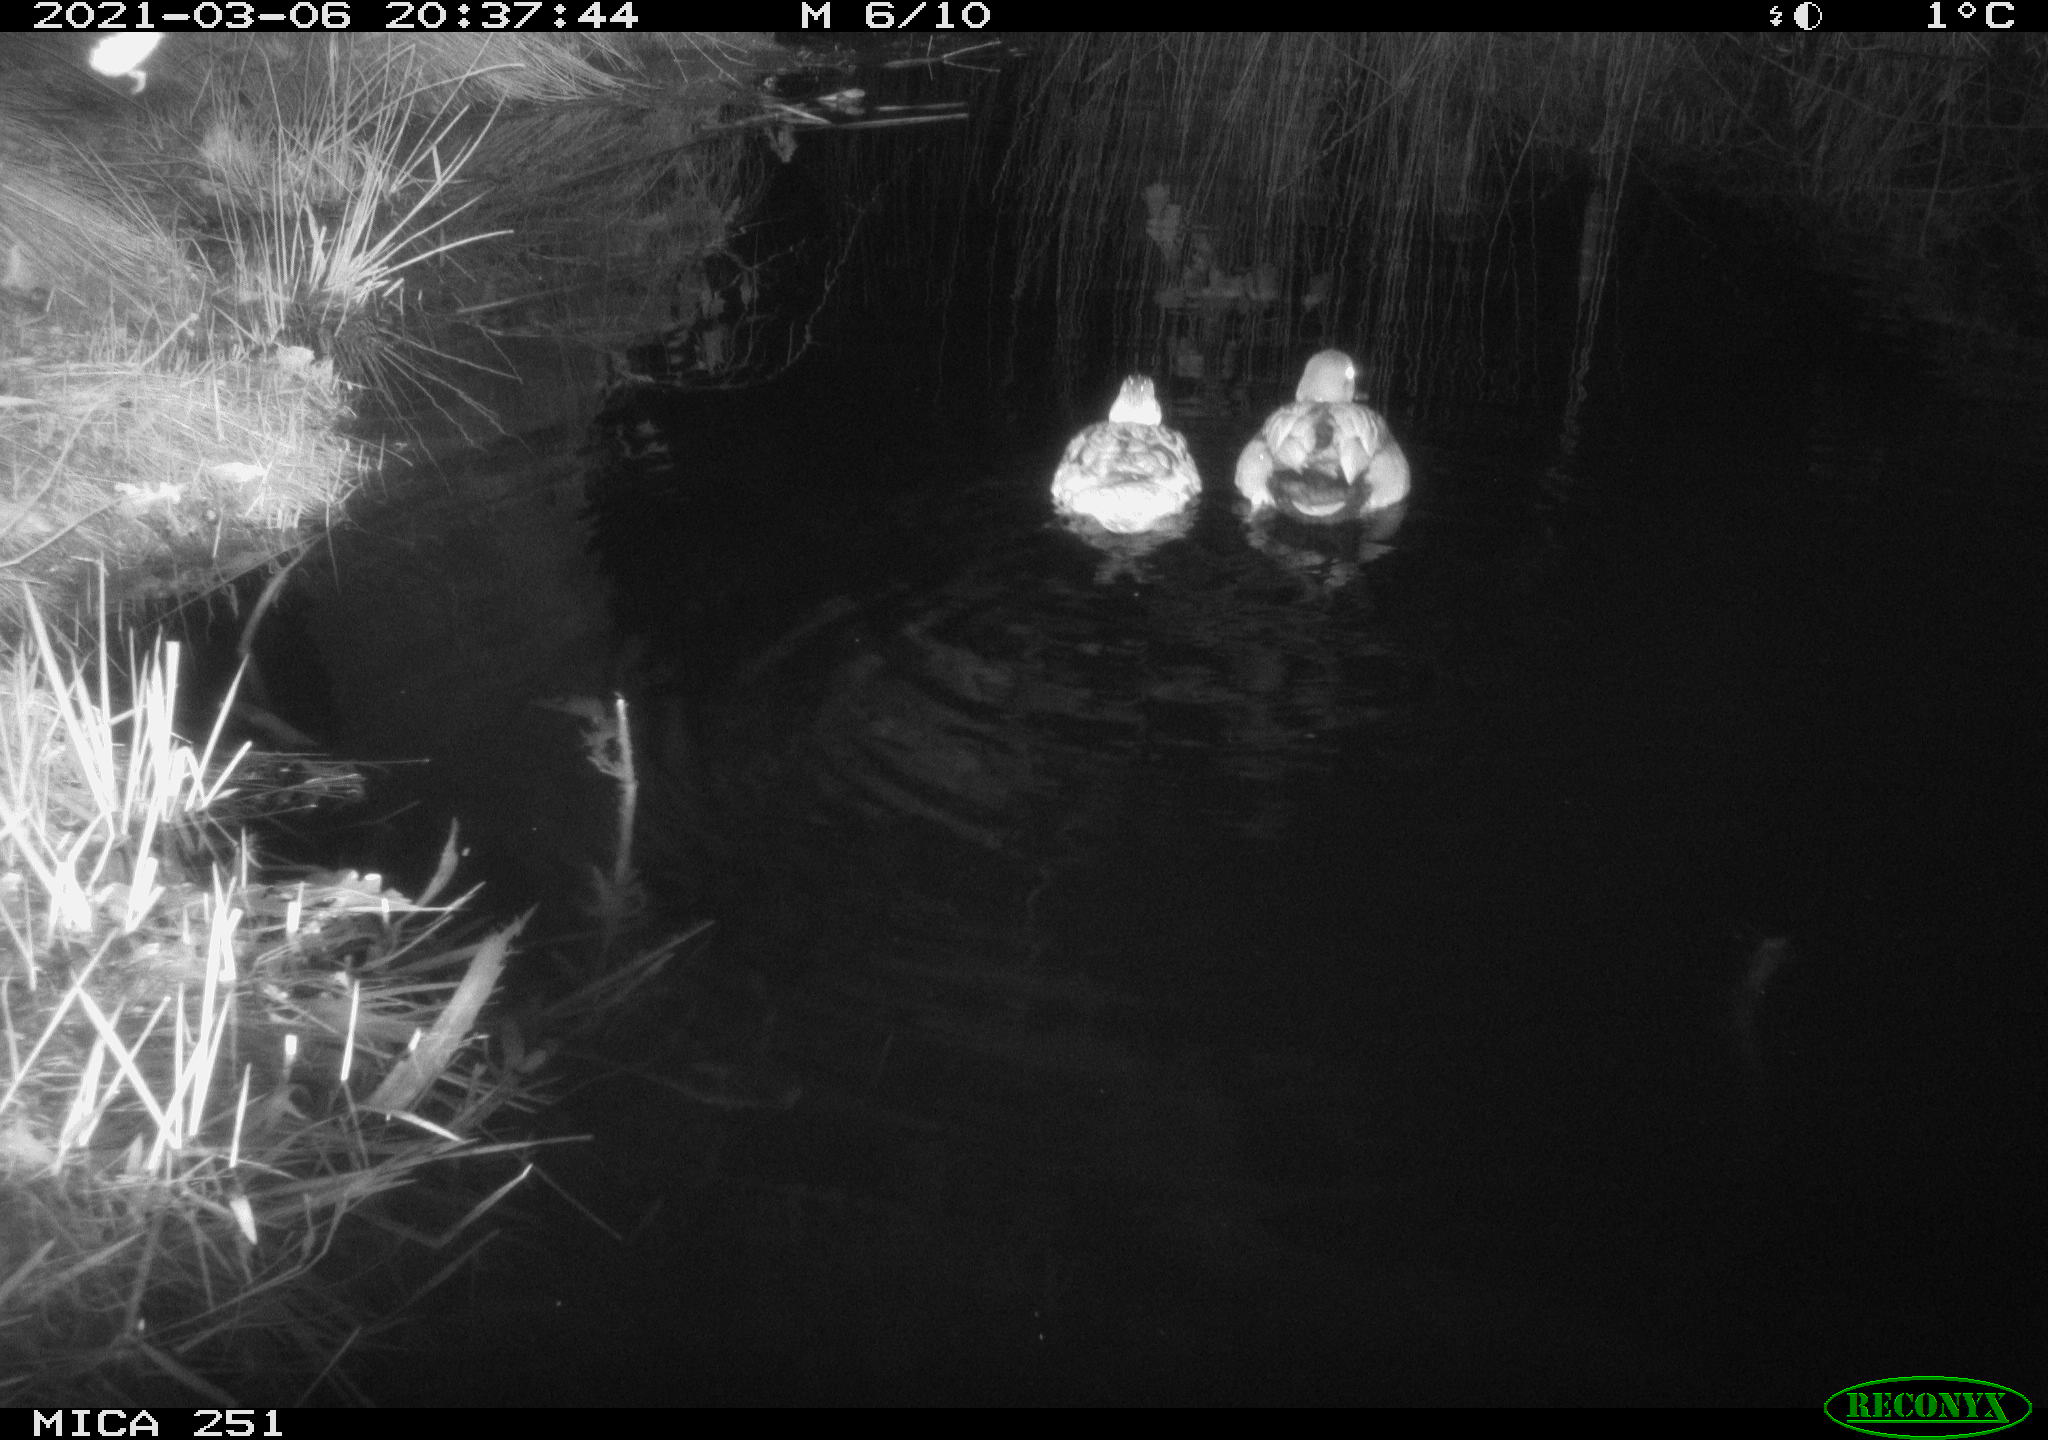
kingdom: Animalia
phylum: Chordata
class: Aves
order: Anseriformes
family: Anatidae
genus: Anas
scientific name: Anas platyrhynchos
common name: Mallard
